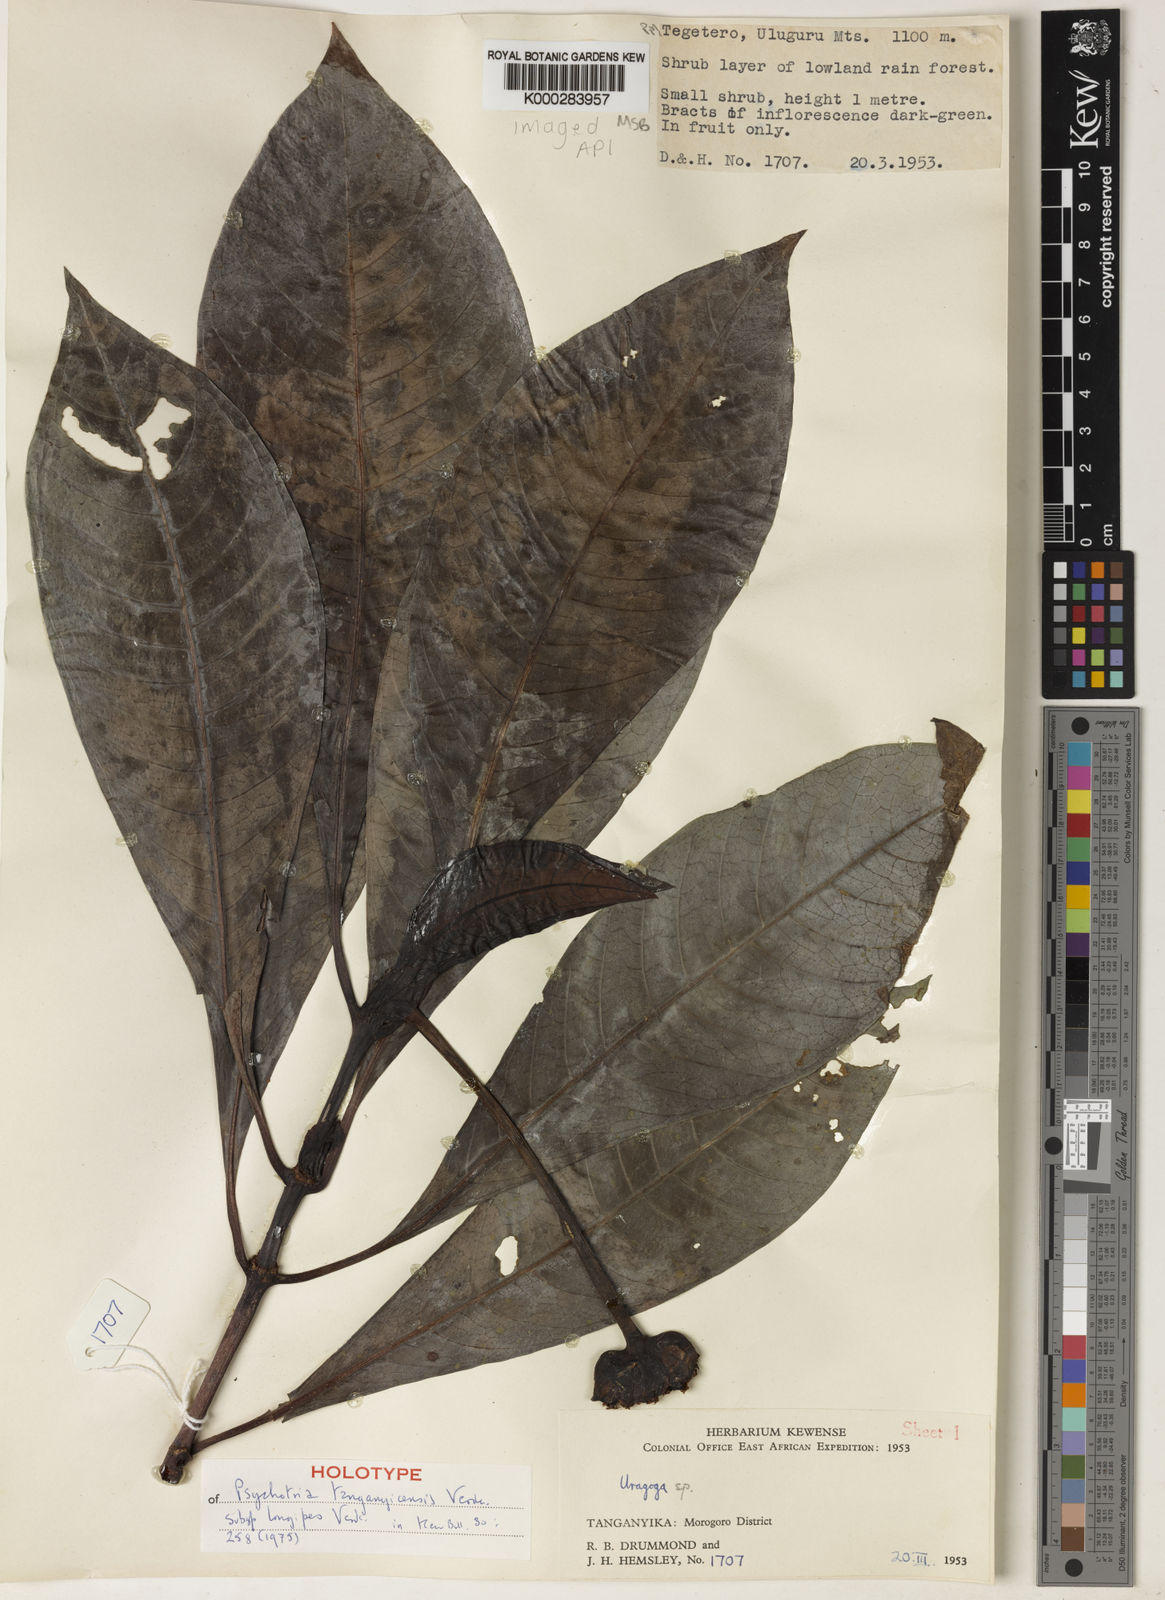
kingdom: Plantae
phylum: Tracheophyta
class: Magnoliopsida
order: Gentianales
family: Rubiaceae
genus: Psychotria
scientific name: Psychotria tanganyicensis
